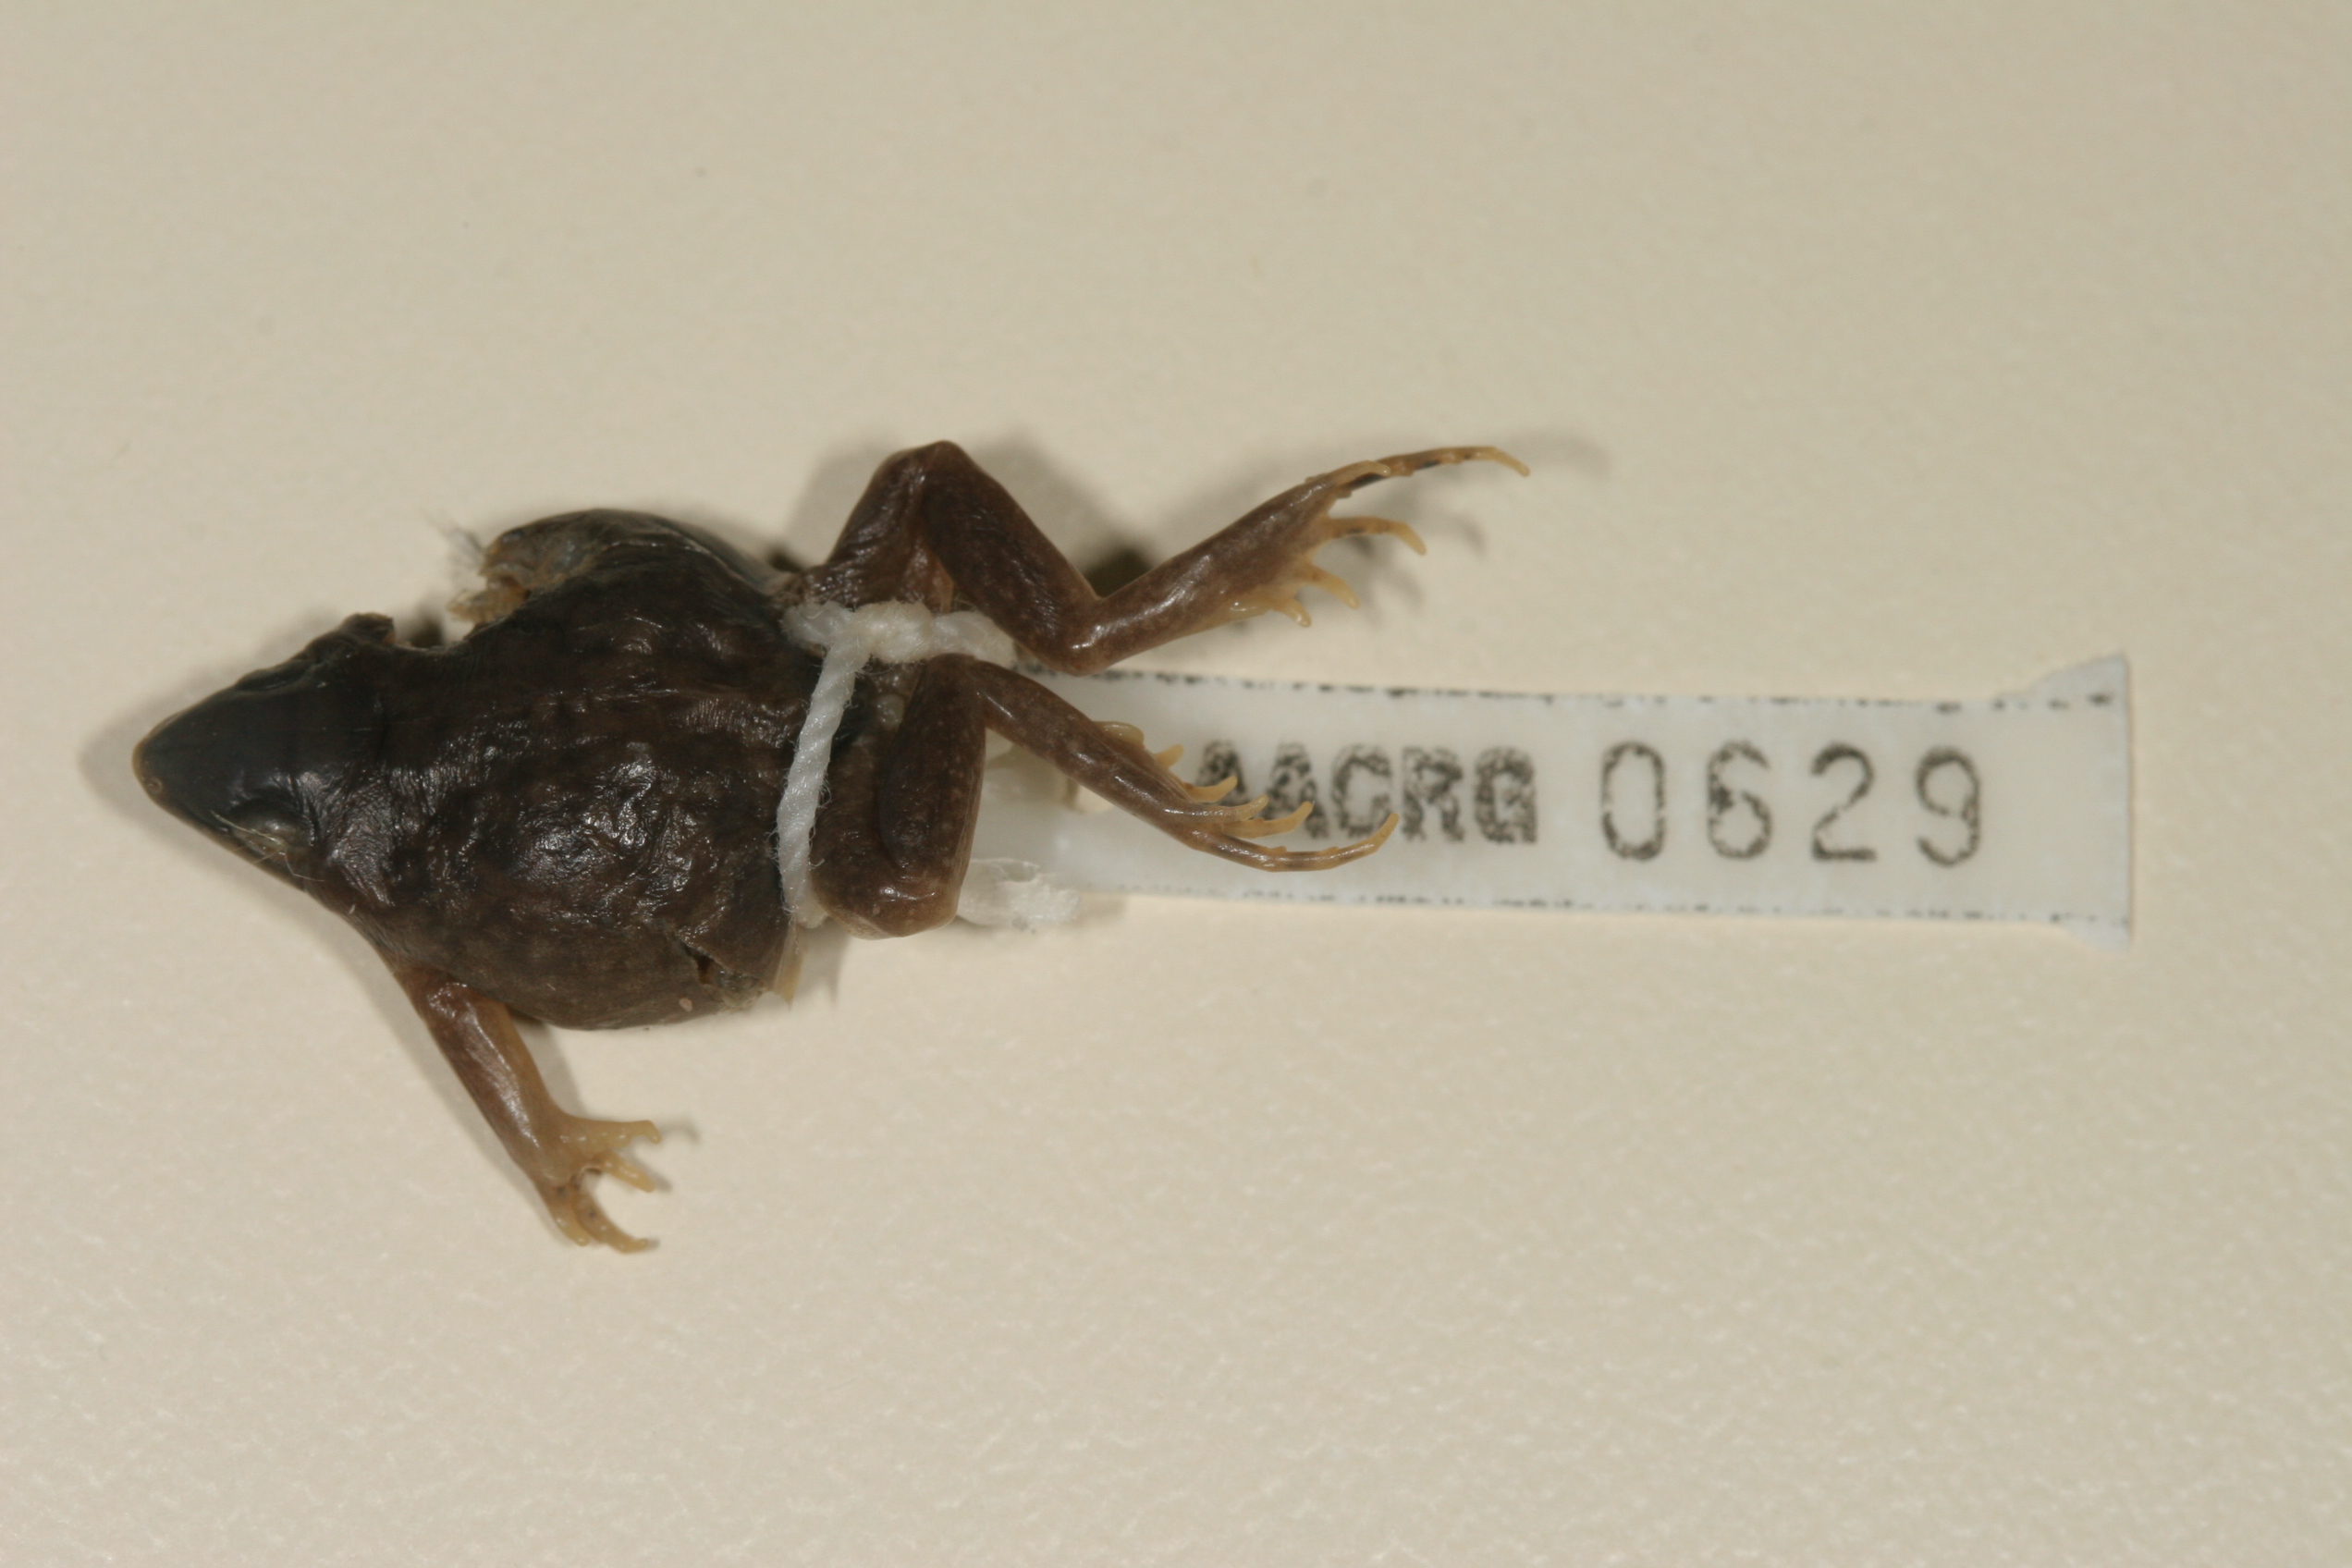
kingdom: Animalia
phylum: Chordata
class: Amphibia
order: Anura
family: Hemisotidae
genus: Hemisus
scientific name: Hemisus marmoratus
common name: Mottled shovel-nosed frog
